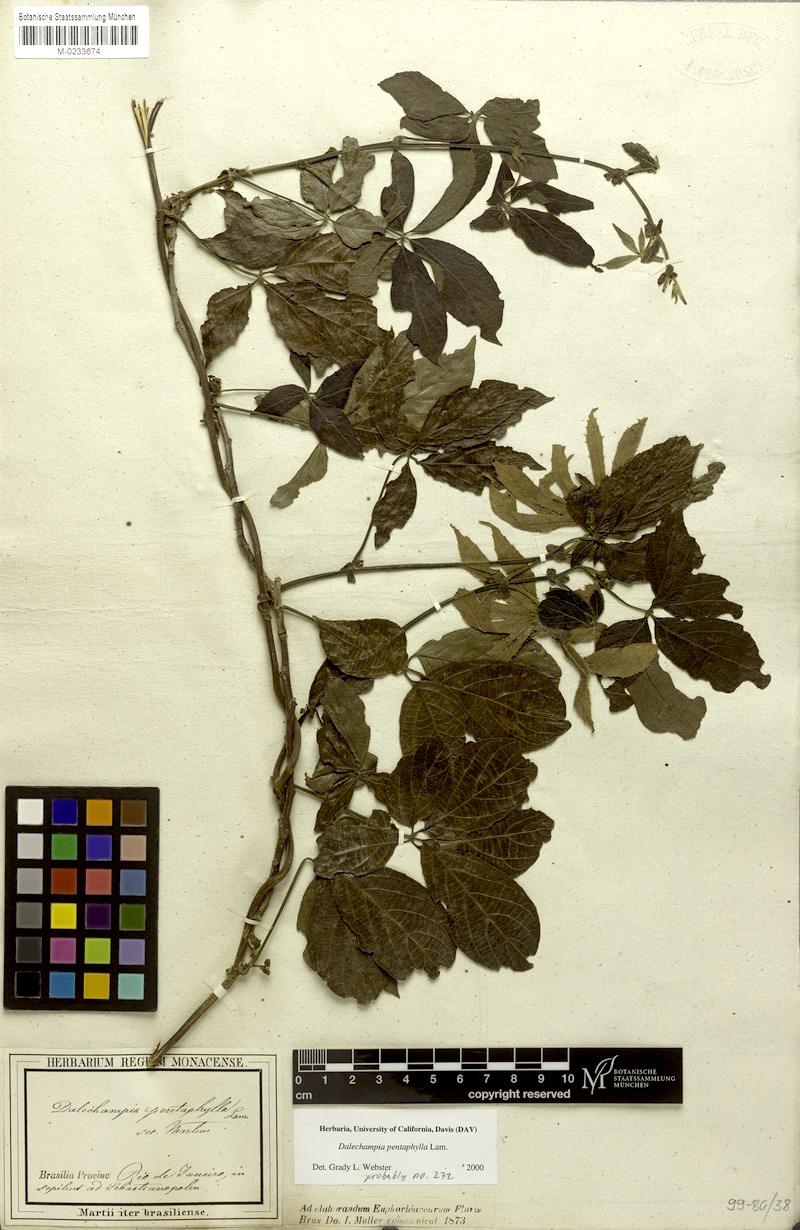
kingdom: Plantae
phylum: Tracheophyta
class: Magnoliopsida
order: Malpighiales
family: Euphorbiaceae
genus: Dalechampia
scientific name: Dalechampia pentaphylla
